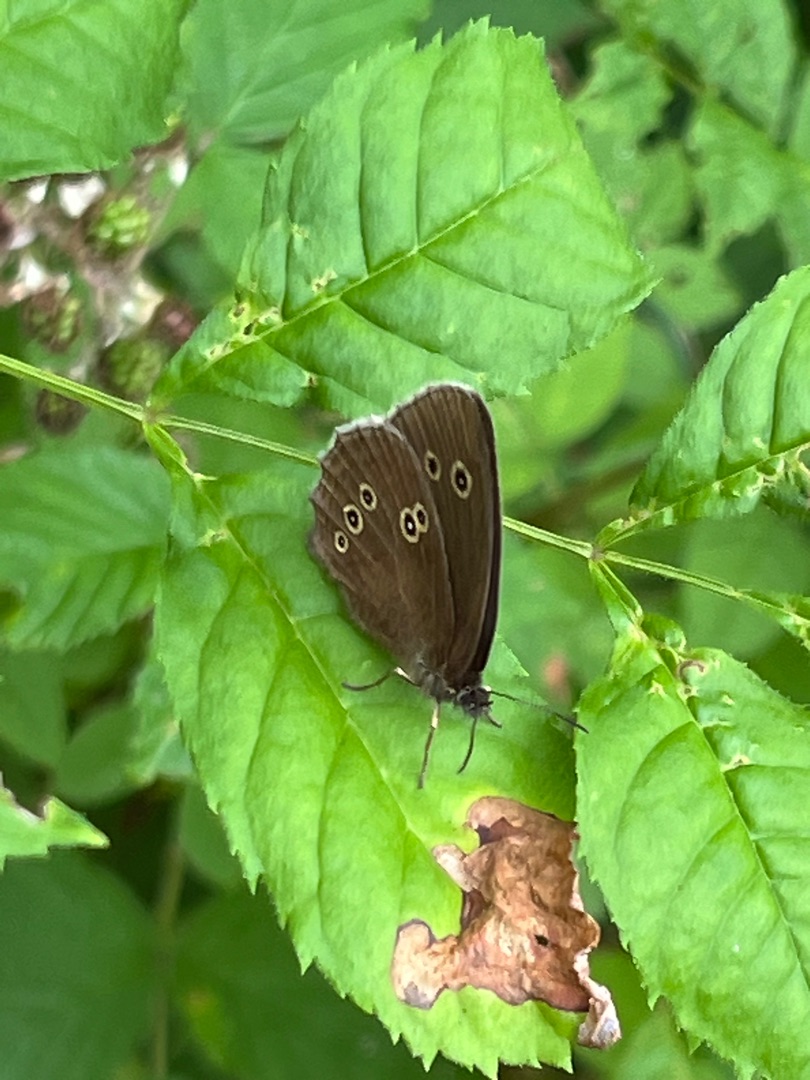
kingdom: Animalia
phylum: Arthropoda
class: Insecta
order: Lepidoptera
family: Nymphalidae
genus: Aphantopus
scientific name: Aphantopus hyperantus
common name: Engrandøje
